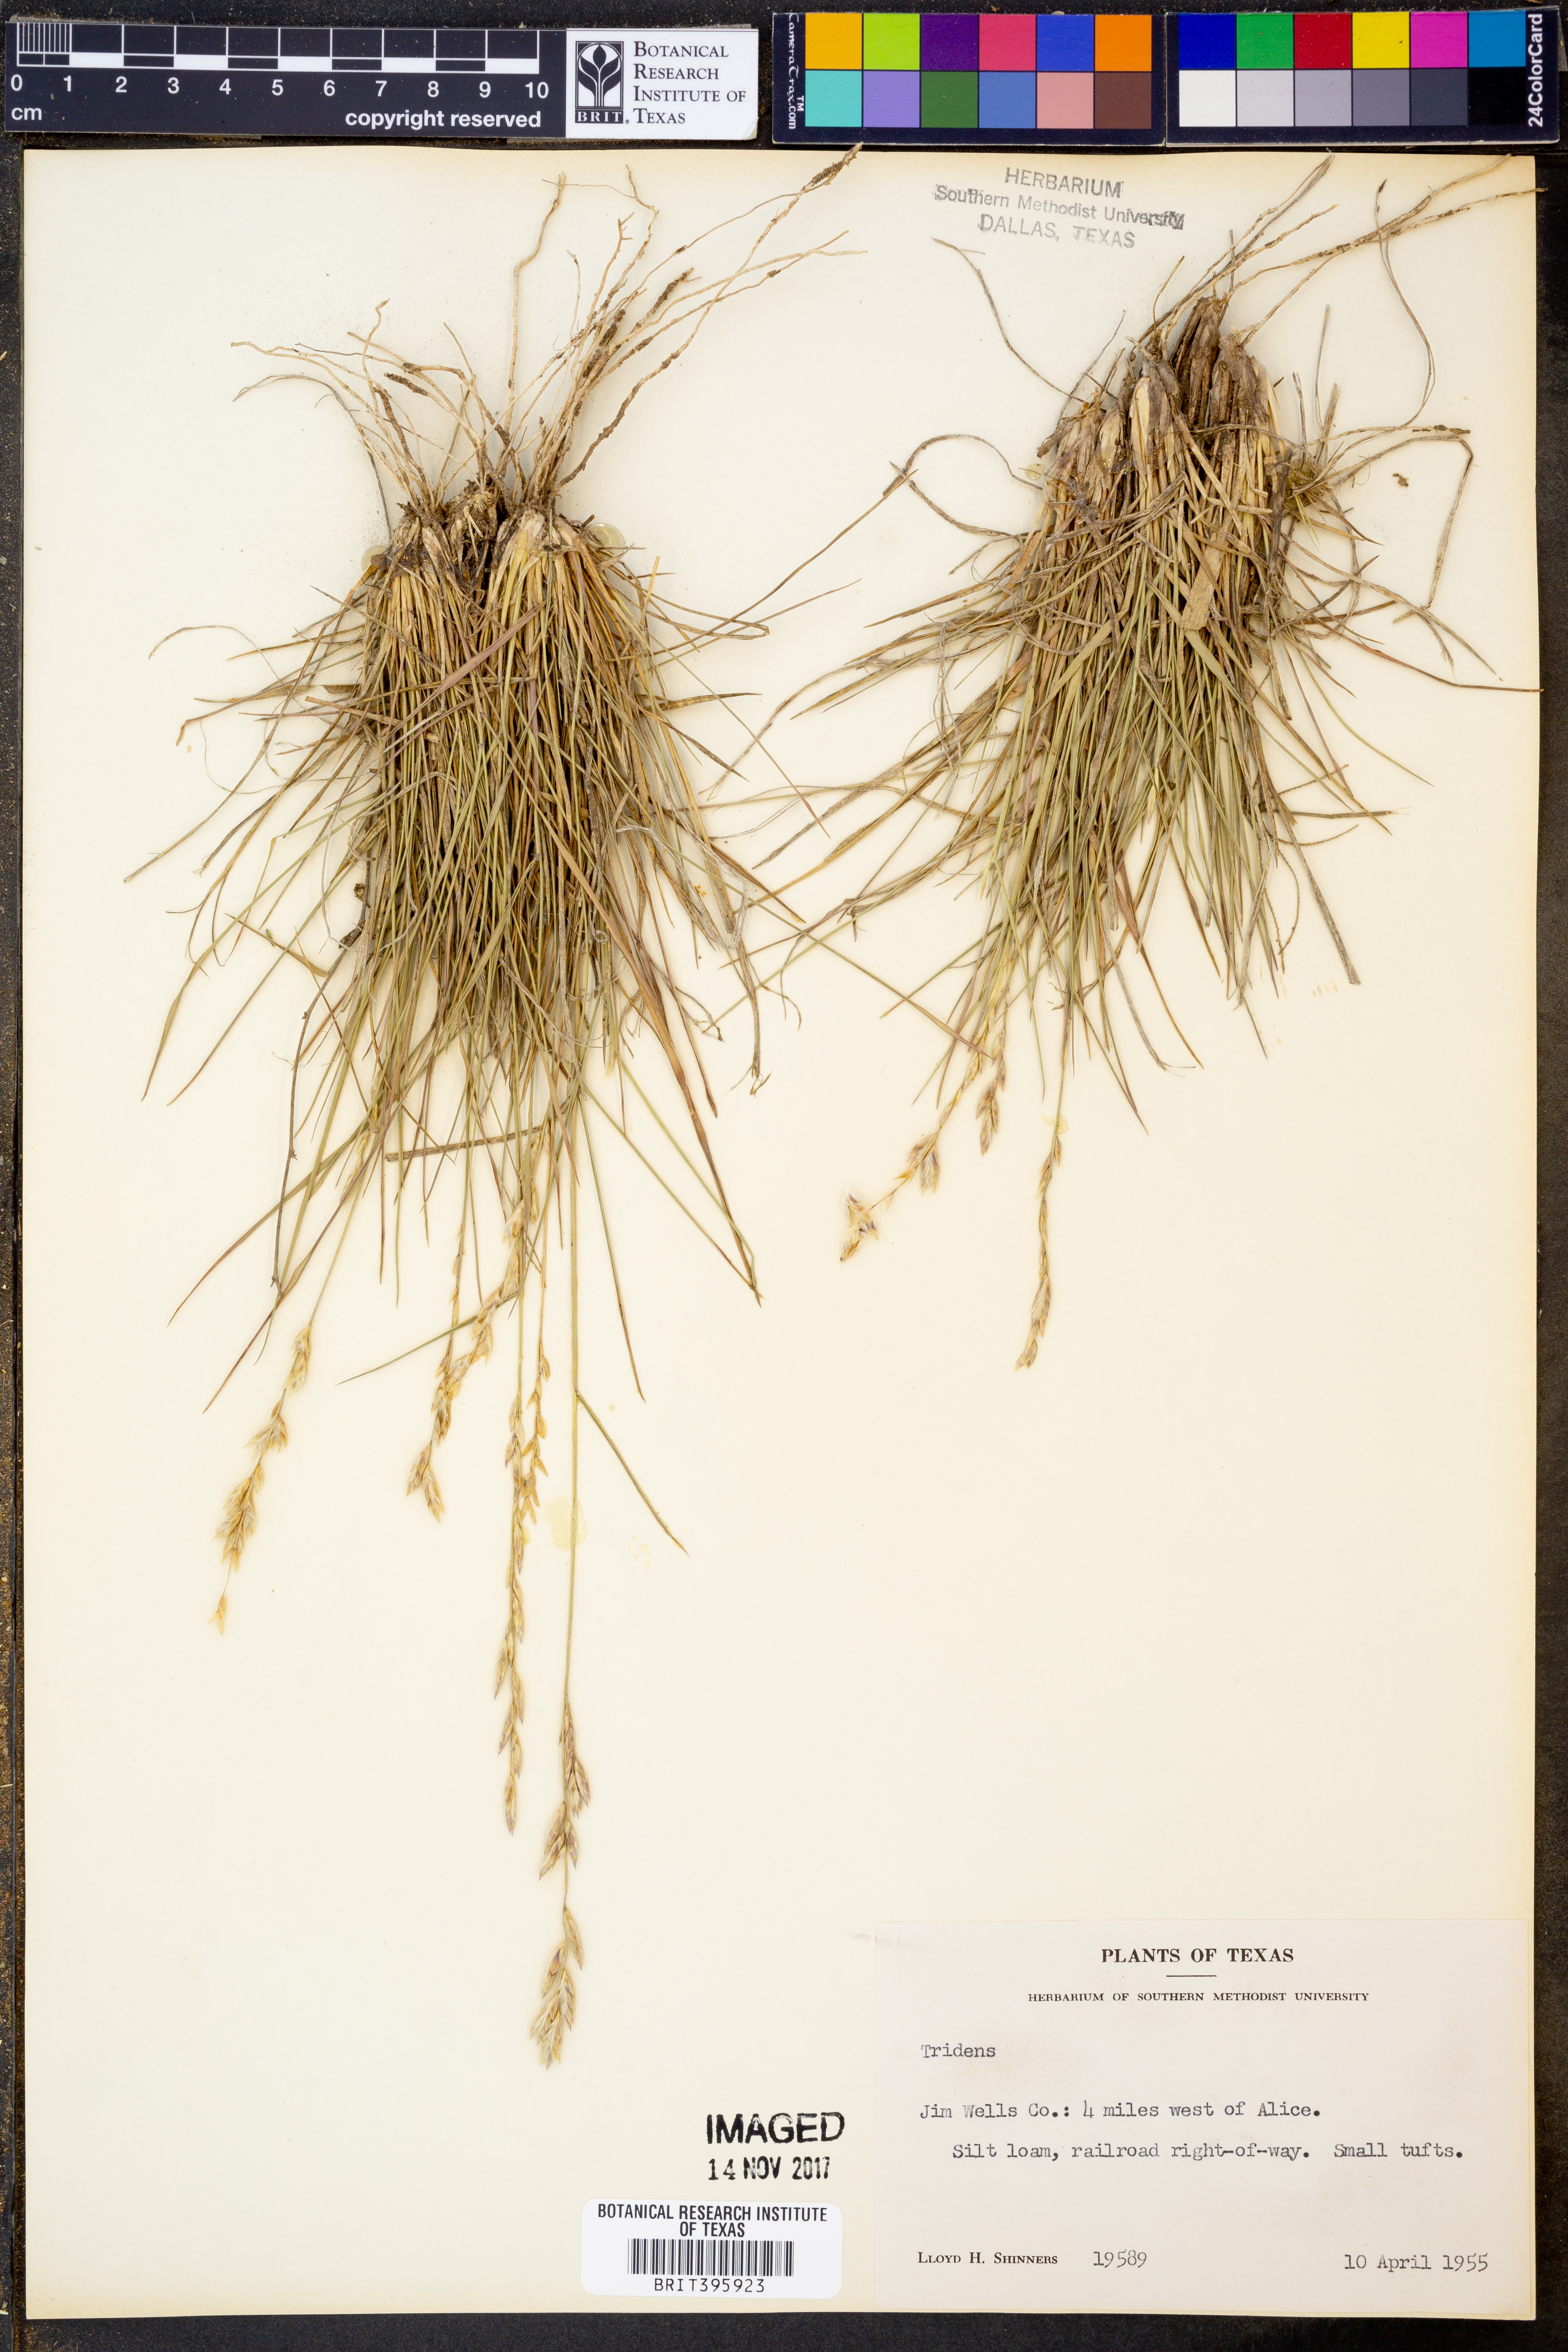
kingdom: Plantae
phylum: Tracheophyta
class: Liliopsida
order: Poales
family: Poaceae
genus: Tridens
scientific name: Tridens
